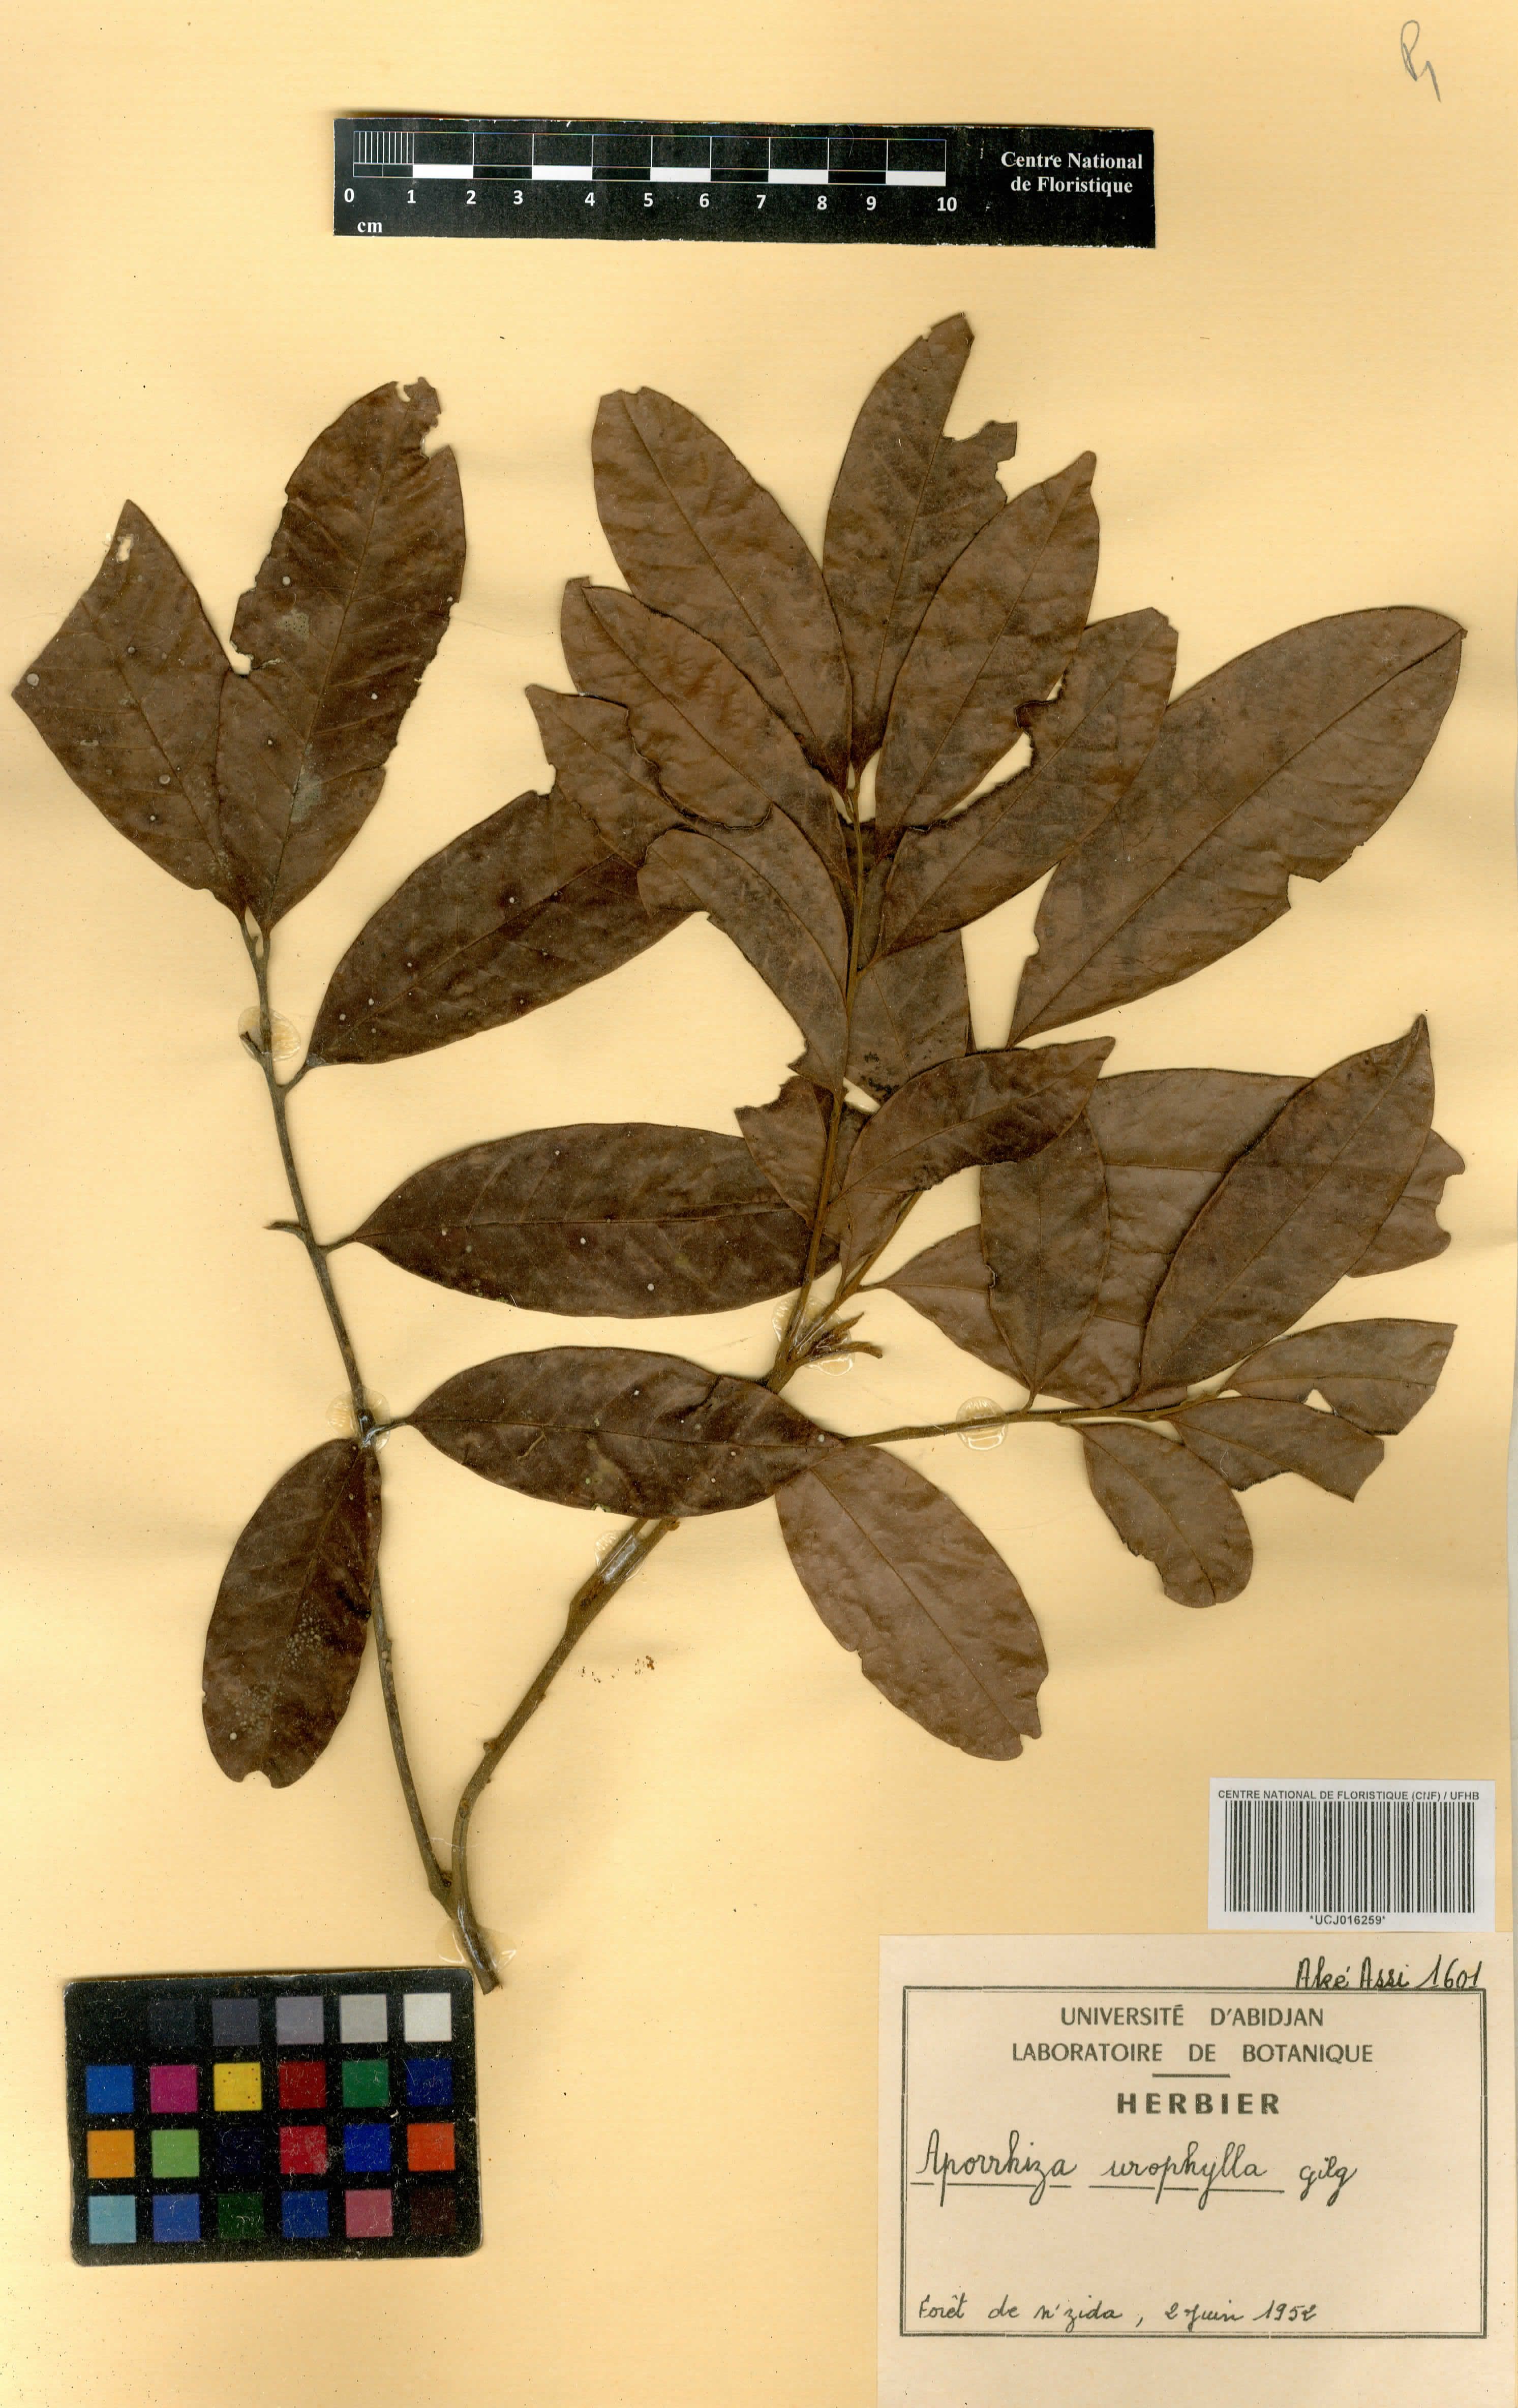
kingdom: Plantae
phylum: Tracheophyta
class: Magnoliopsida
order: Sapindales
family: Sapindaceae
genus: Aporrhiza
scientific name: Aporrhiza urophylla
